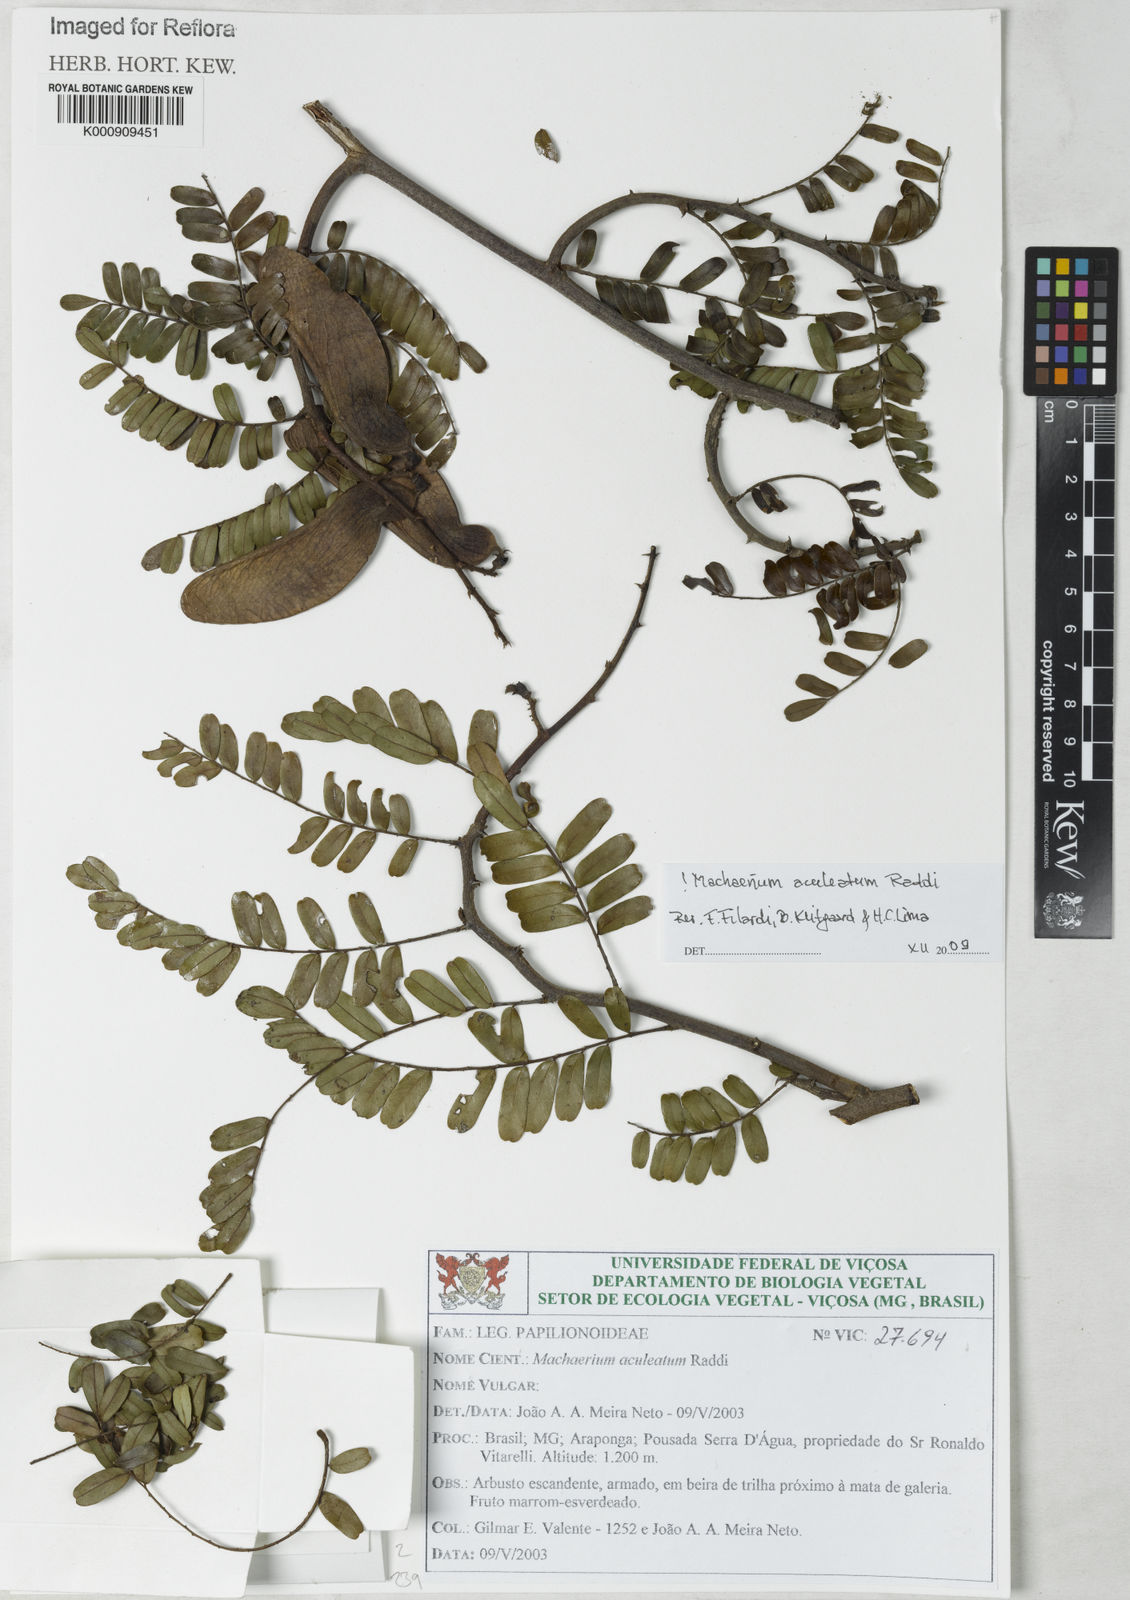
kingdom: Plantae
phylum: Tracheophyta
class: Magnoliopsida
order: Fabales
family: Fabaceae
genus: Machaerium
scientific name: Machaerium aculeatum
